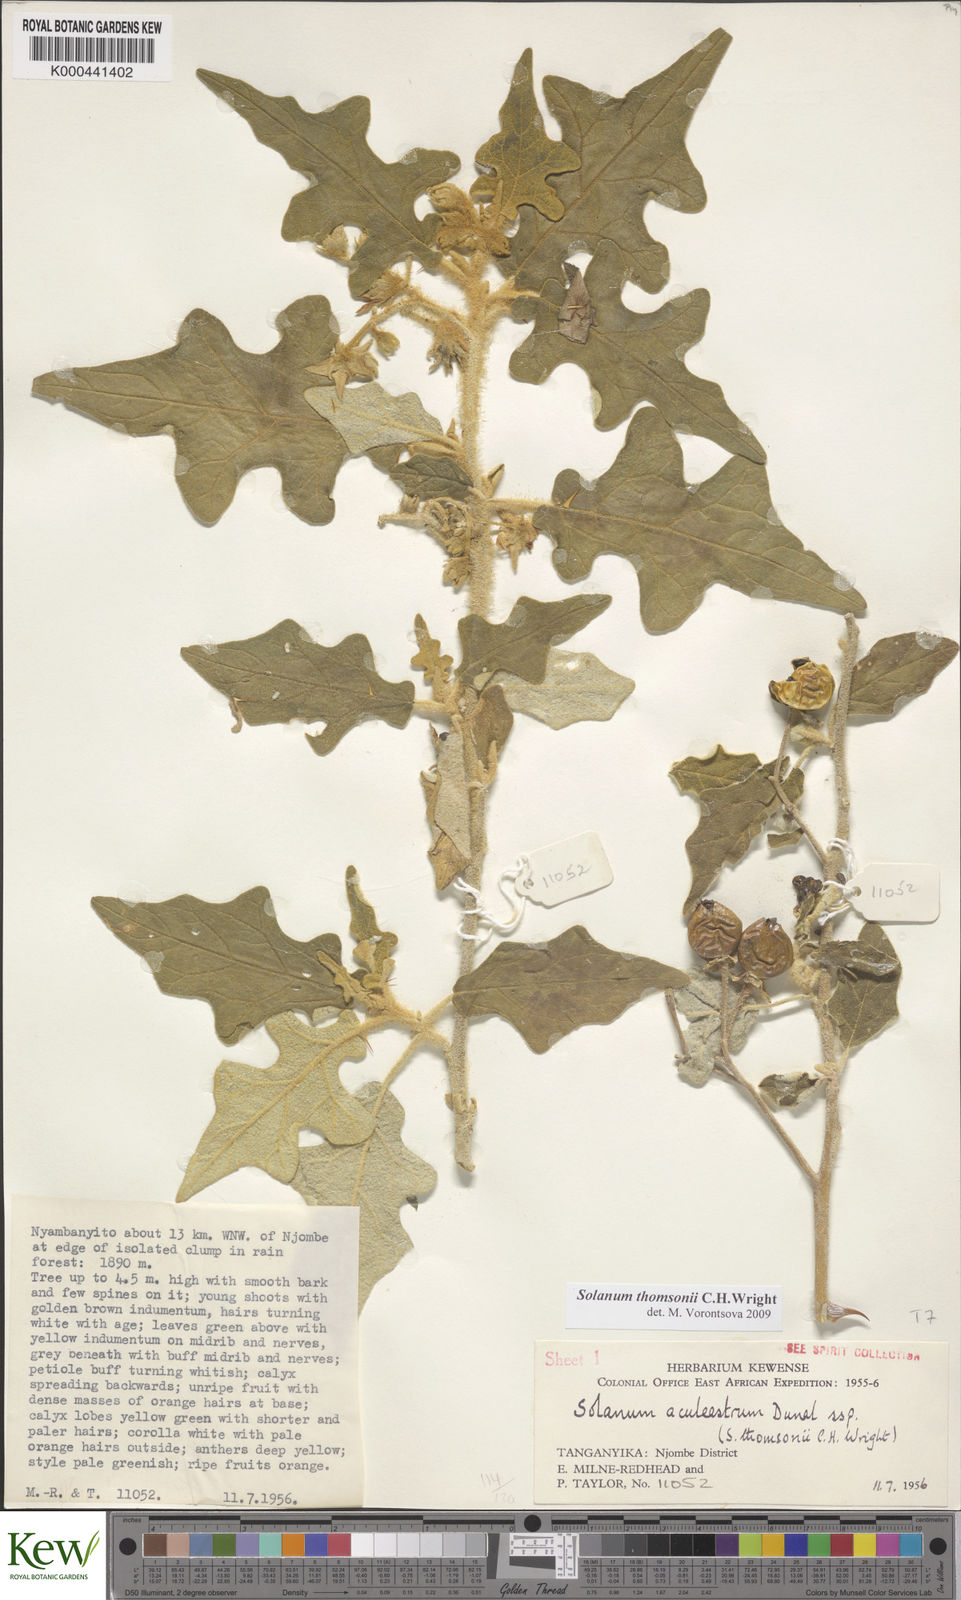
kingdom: Plantae
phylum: Tracheophyta
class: Magnoliopsida
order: Solanales
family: Solanaceae
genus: Solanum
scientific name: Solanum aculeastrum
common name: Goat bitter-apple
